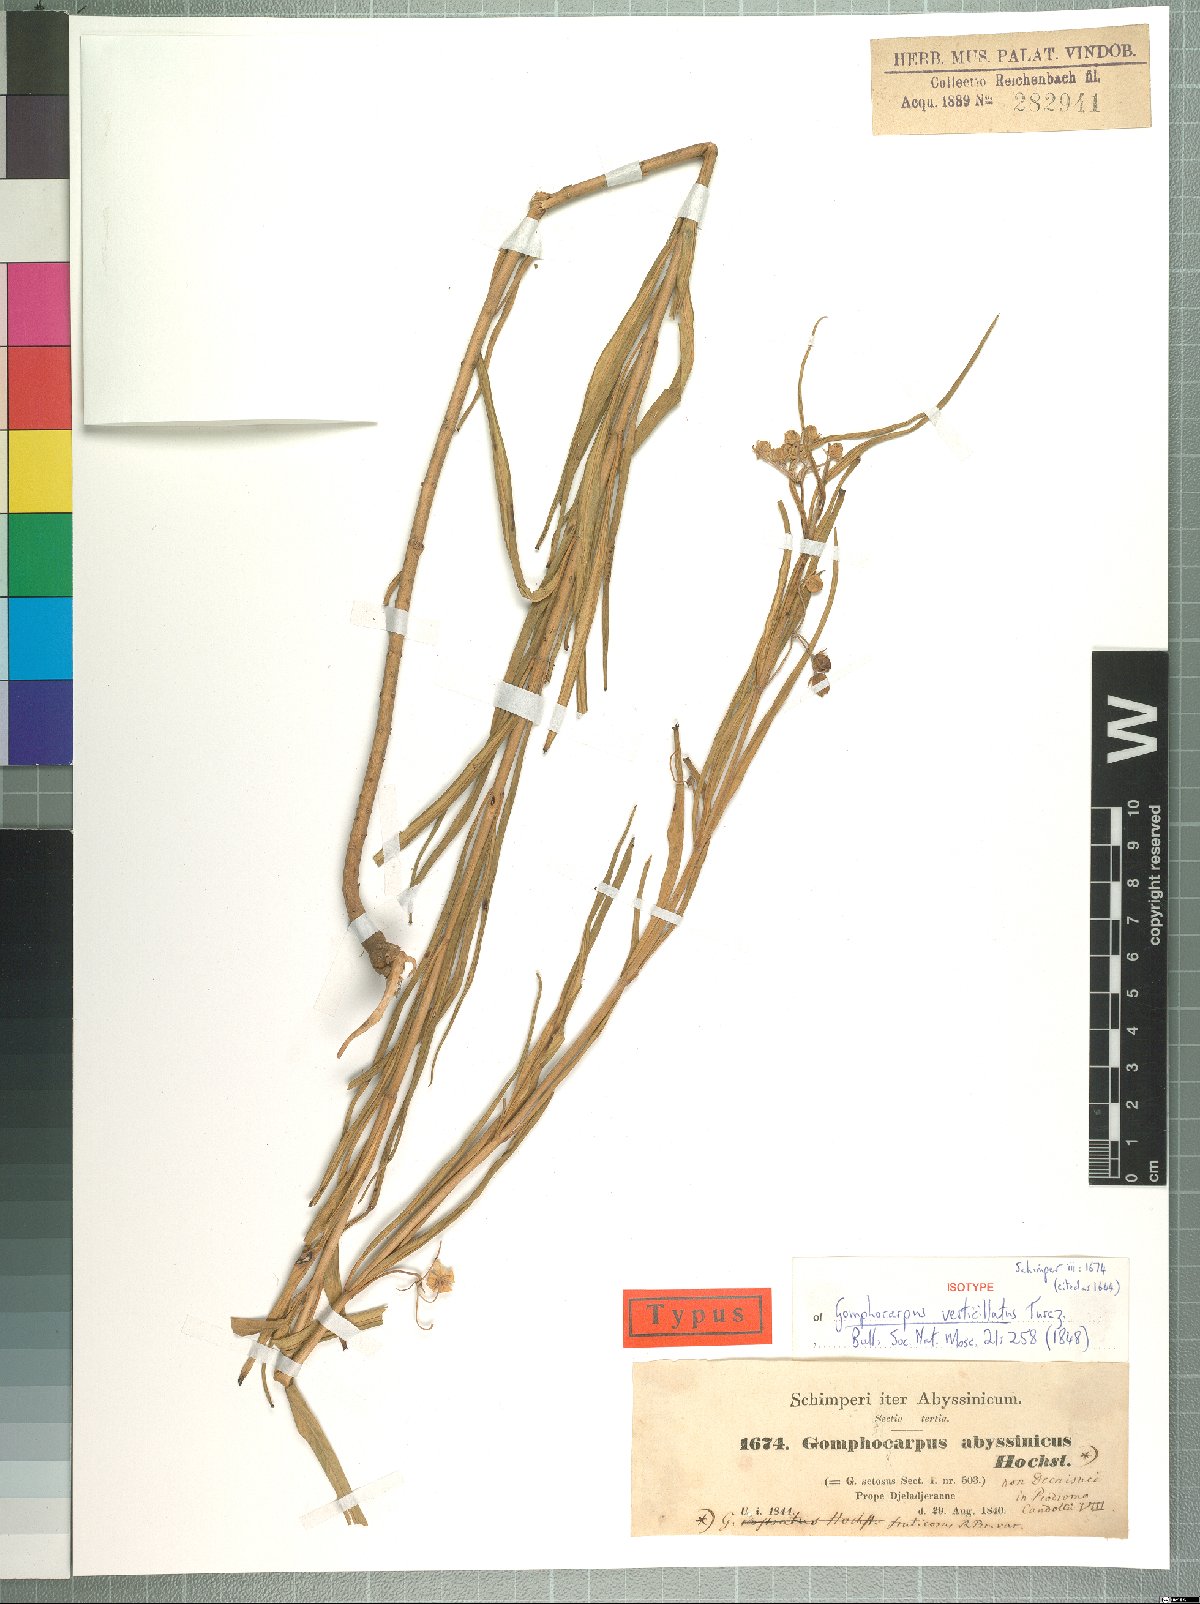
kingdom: Plantae
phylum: Tracheophyta
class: Magnoliopsida
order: Gentianales
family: Apocynaceae
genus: Gomphocarpus
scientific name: Gomphocarpus fruticosus
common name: Milkweed
